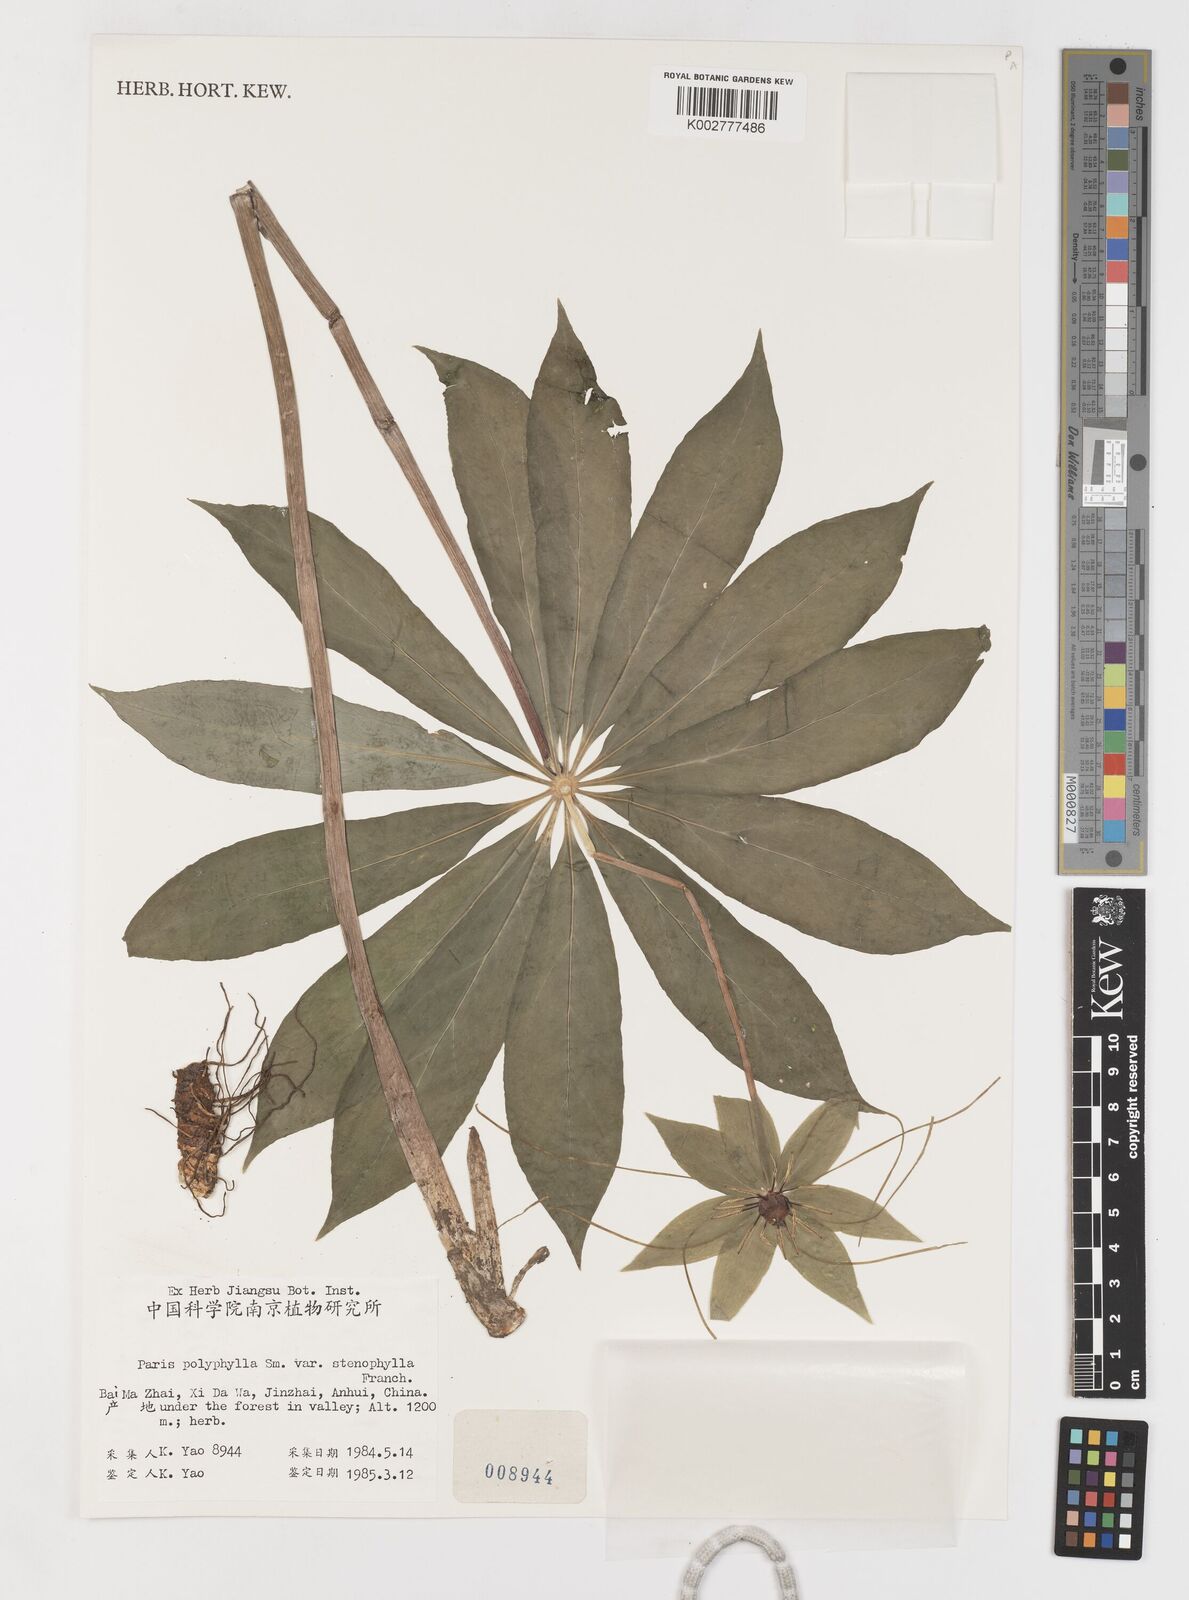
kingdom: Plantae
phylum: Tracheophyta
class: Liliopsida
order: Liliales
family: Melanthiaceae
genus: Paris
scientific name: Paris lancifolia
